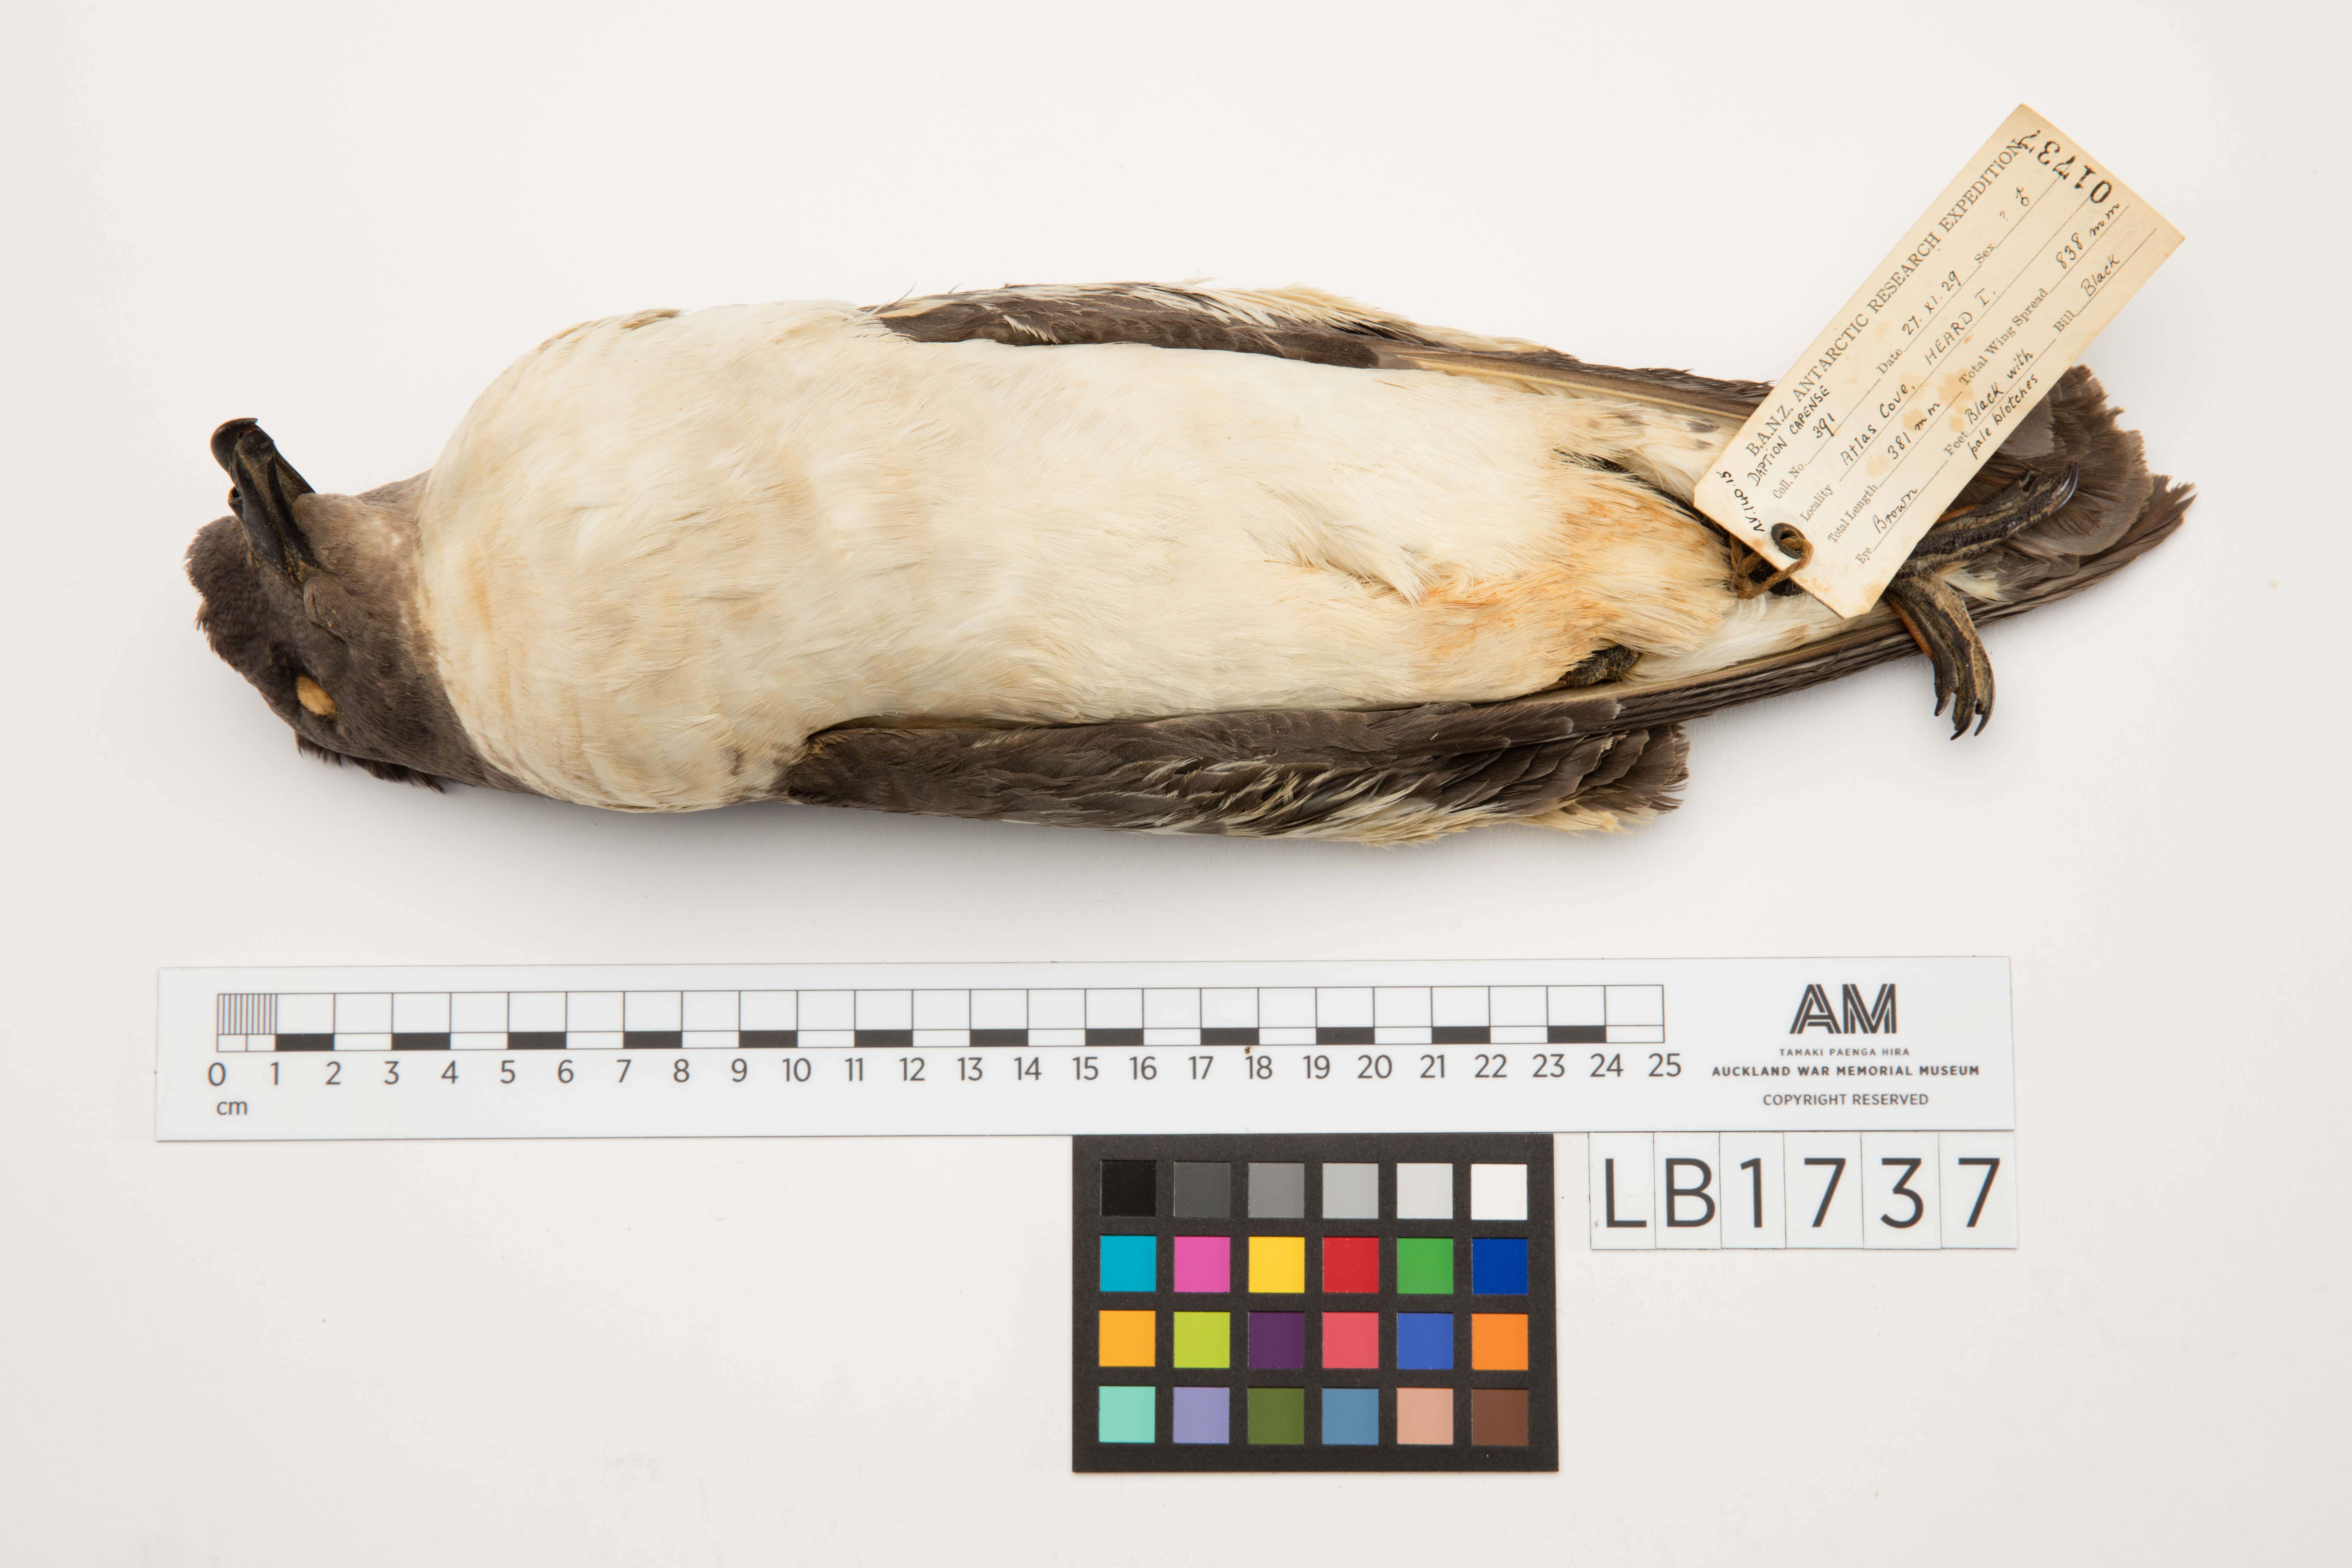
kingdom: Animalia
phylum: Chordata
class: Aves
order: Procellariiformes
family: Procellariidae
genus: Daption
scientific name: Daption capense
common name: Cape petrel
